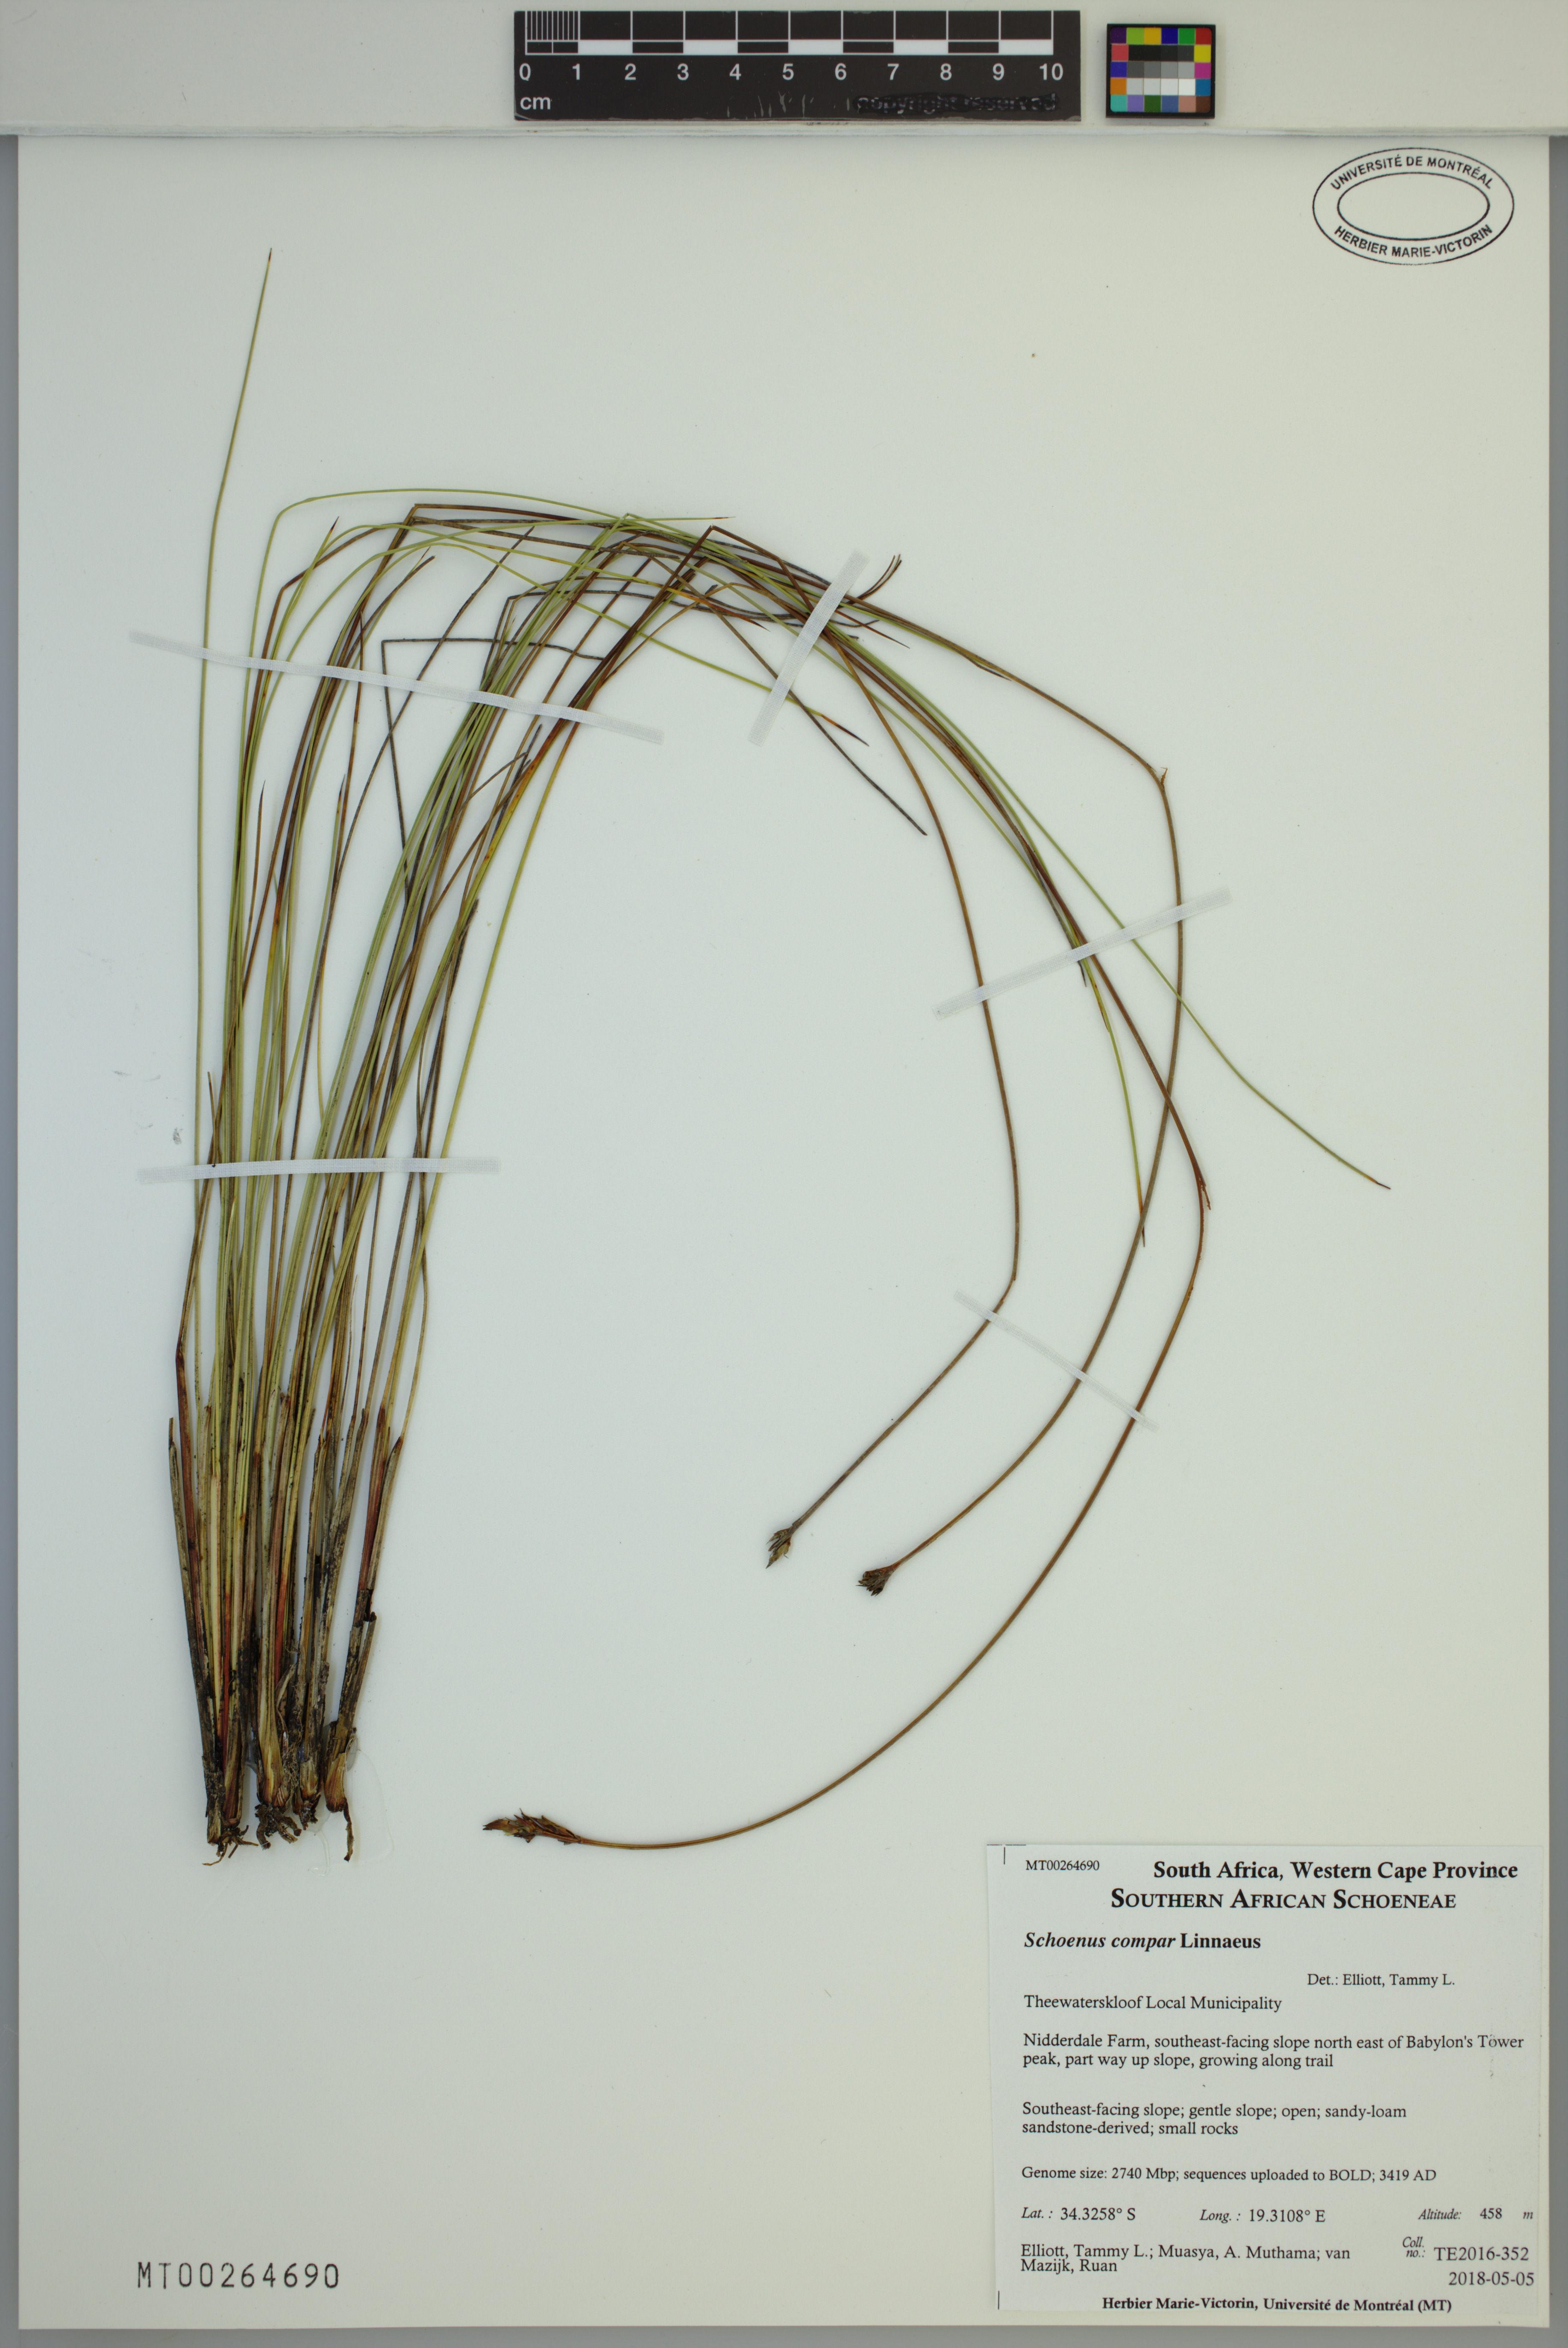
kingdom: Plantae
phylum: Tracheophyta
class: Liliopsida
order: Poales
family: Cyperaceae
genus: Schoenus
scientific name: Schoenus compar
